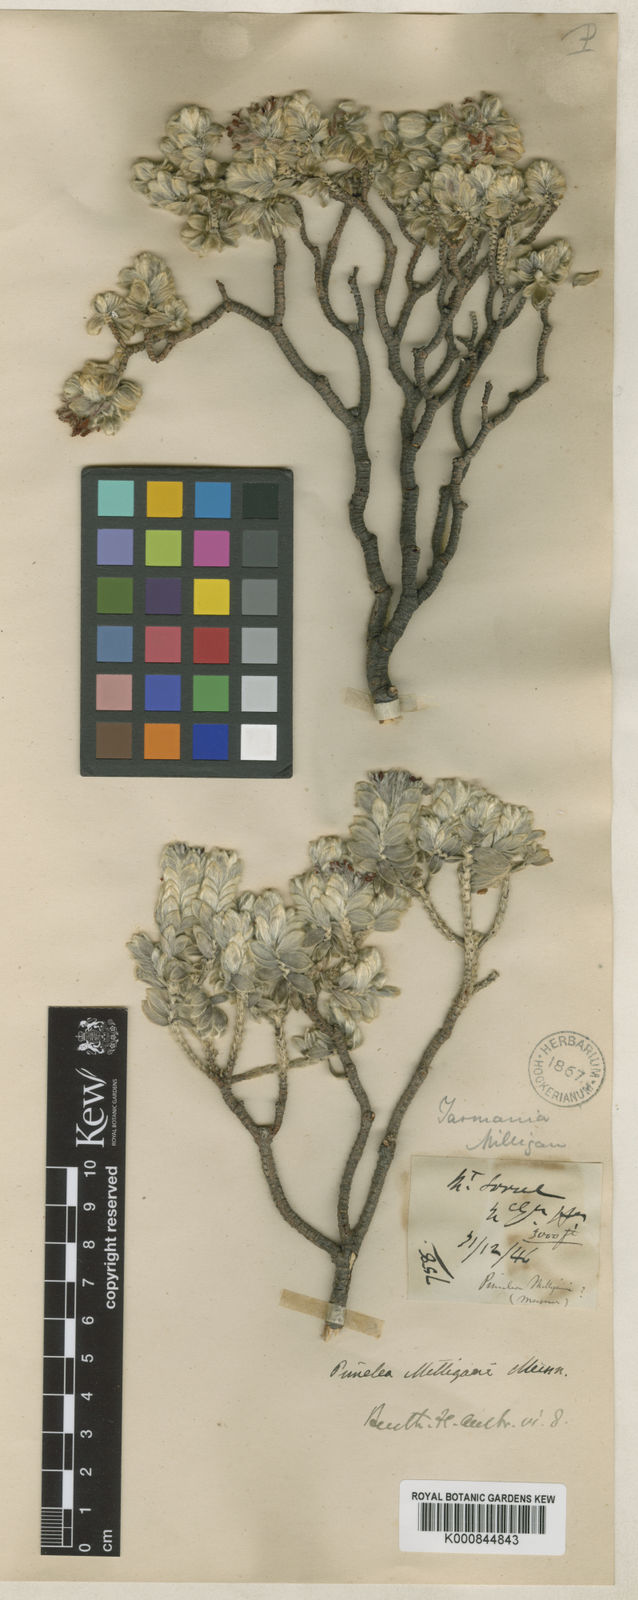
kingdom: Plantae
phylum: Tracheophyta
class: Magnoliopsida
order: Malvales
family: Thymelaeaceae
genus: Pimelea
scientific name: Pimelea milliganii
